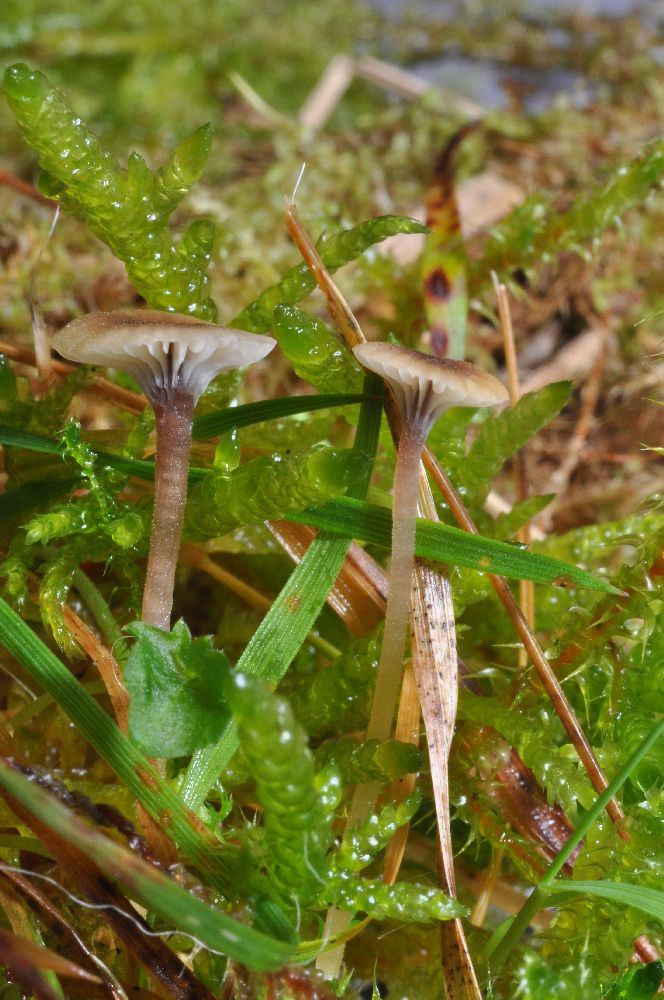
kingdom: Fungi
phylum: Basidiomycota
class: Agaricomycetes
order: Hymenochaetales
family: Rickenellaceae
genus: Rickenella
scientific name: Rickenella swartzii
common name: finstokket mosnavlehat
